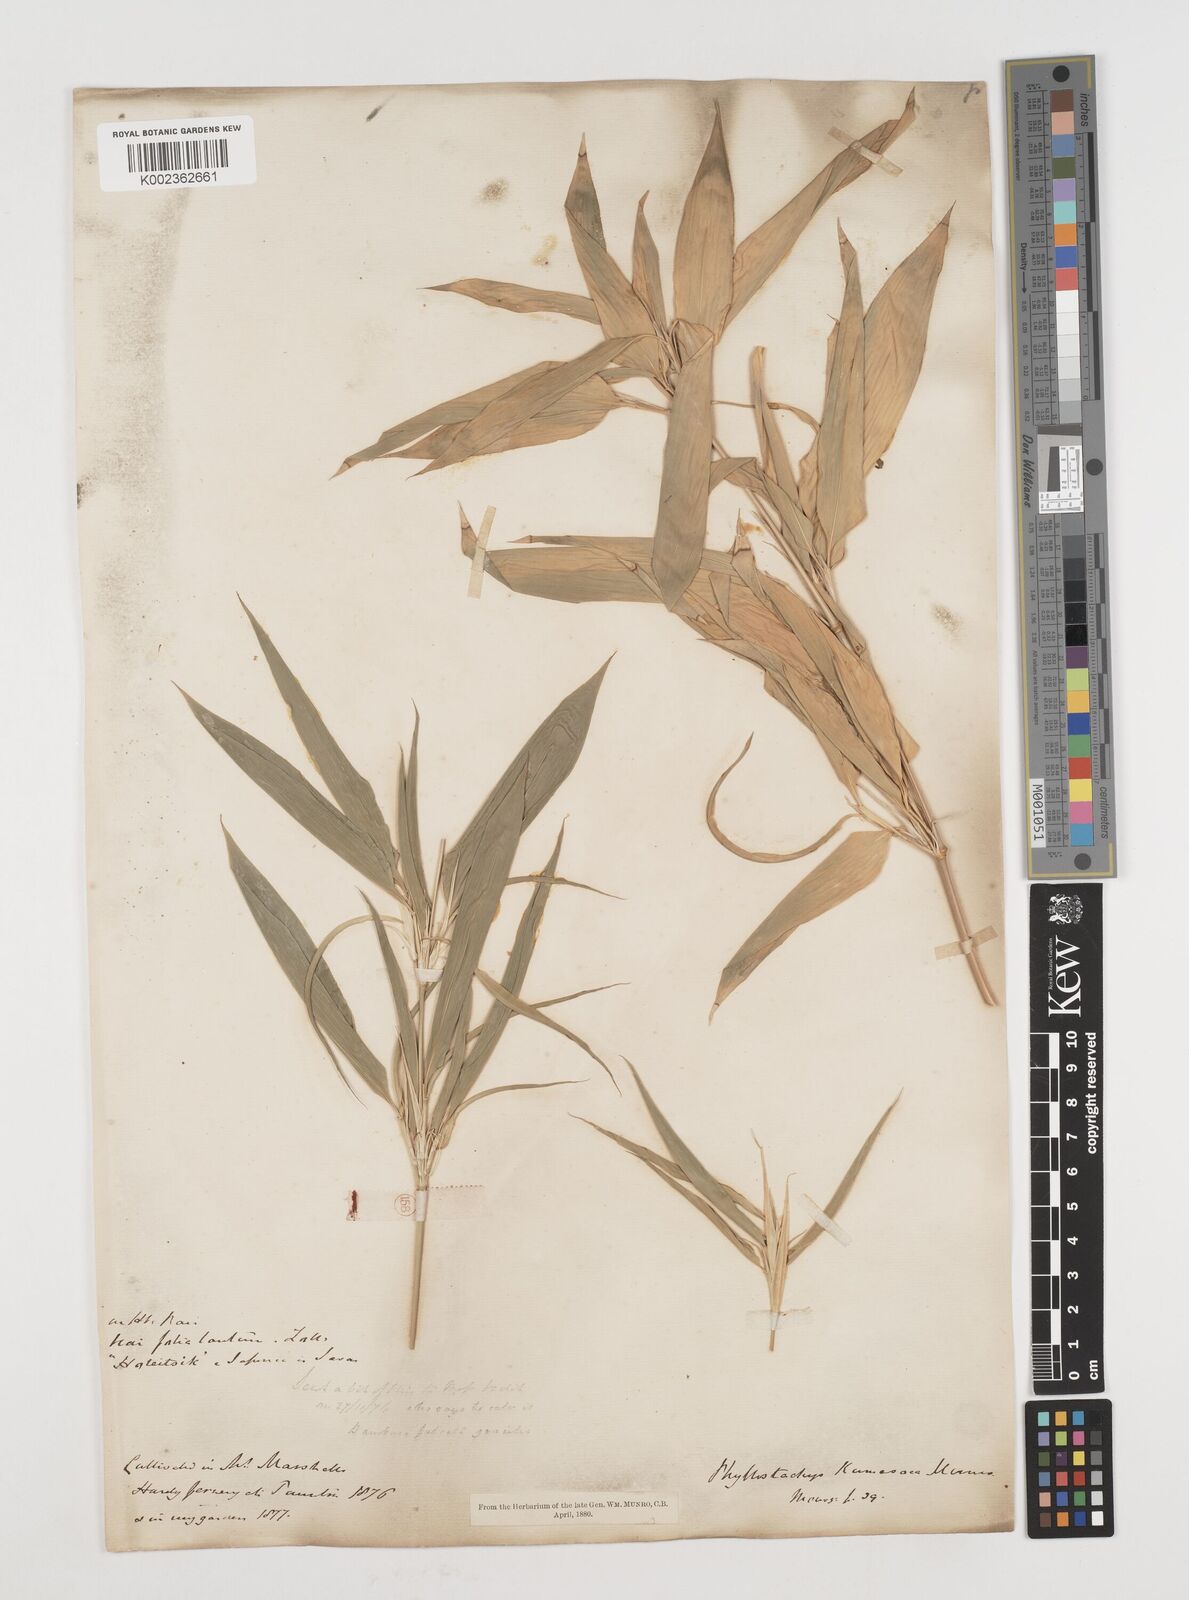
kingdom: Plantae
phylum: Tracheophyta
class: Liliopsida
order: Poales
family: Poaceae
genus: Shibataea
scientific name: Shibataea kumasasa
